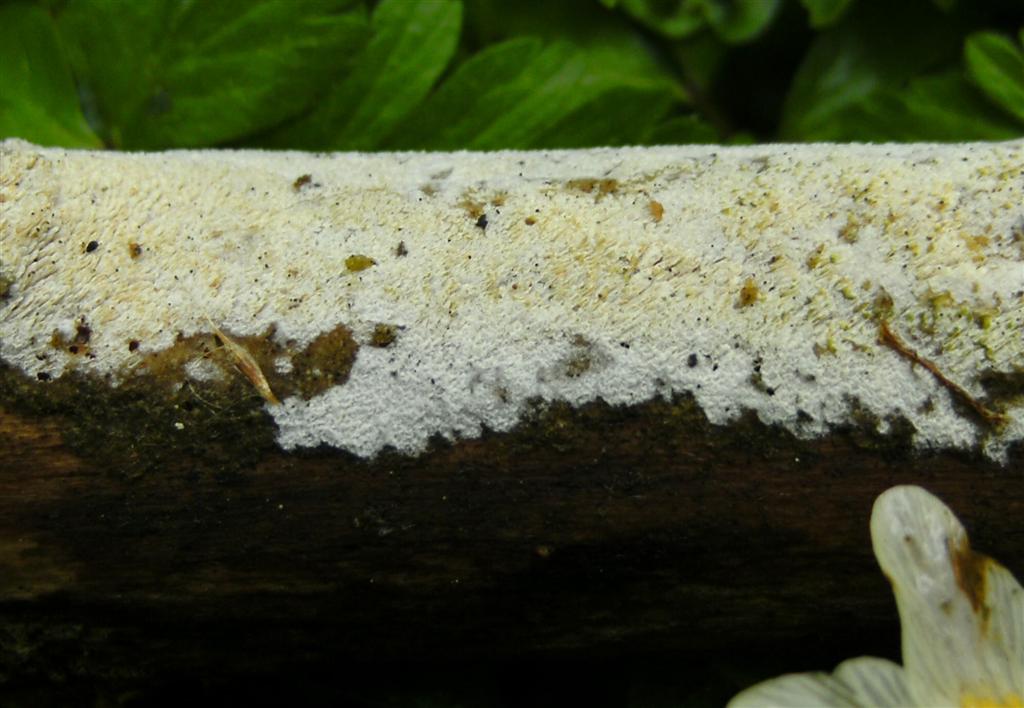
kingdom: Fungi
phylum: Basidiomycota
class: Agaricomycetes
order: Hymenochaetales
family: Schizoporaceae
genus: Schizopora
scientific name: Schizopora paradoxa
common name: hvid tandsvamp
